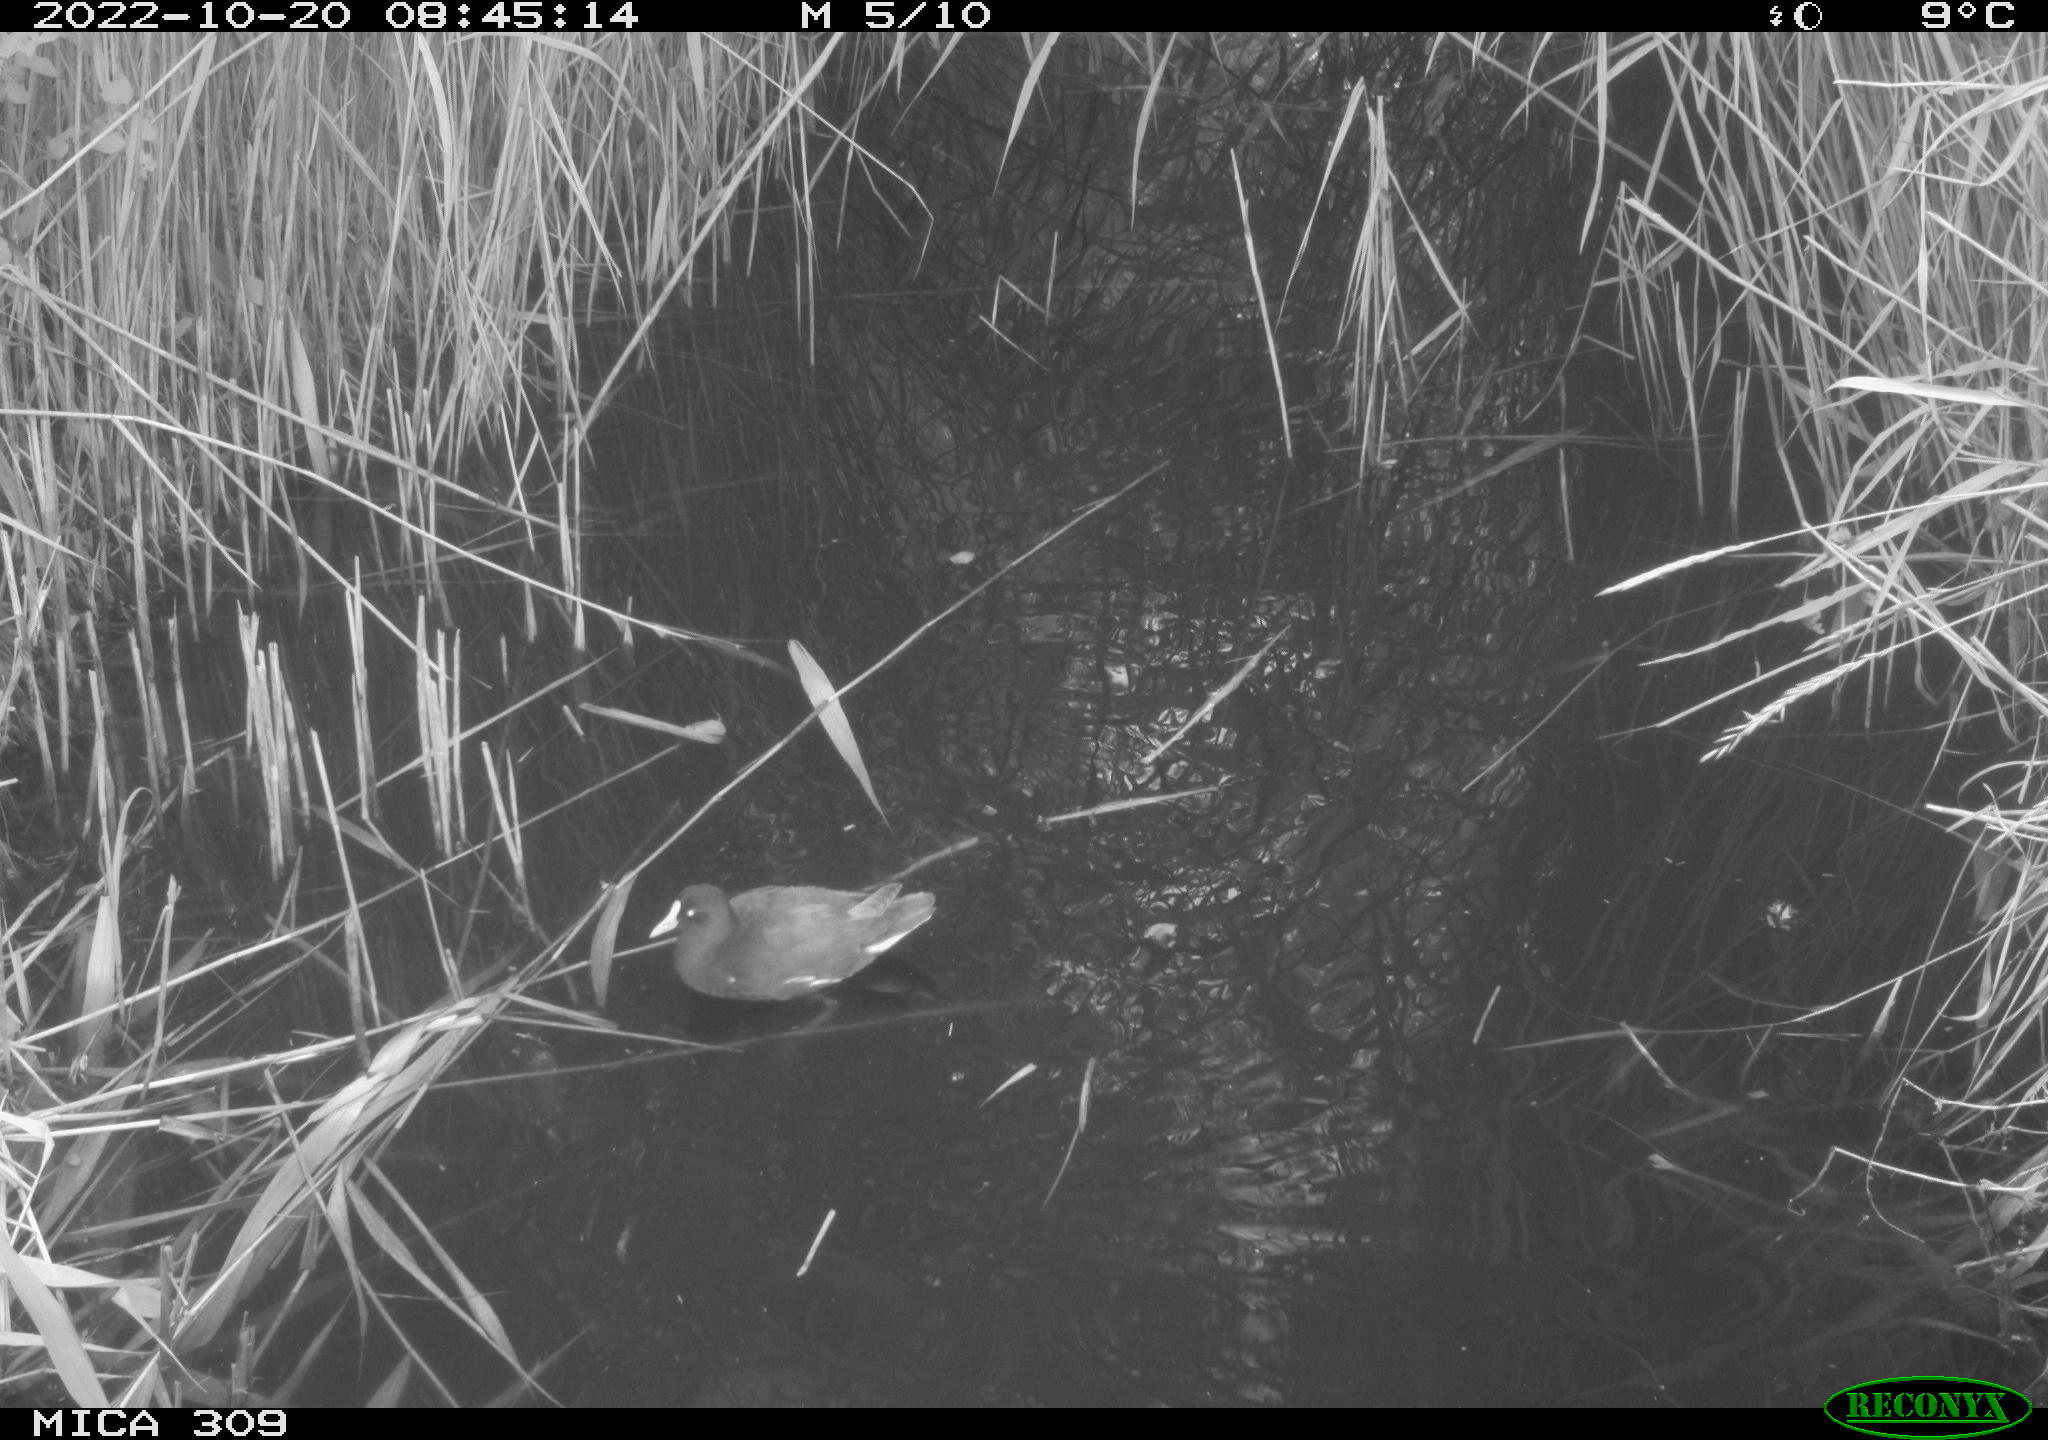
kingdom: Animalia
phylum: Chordata
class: Aves
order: Gruiformes
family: Rallidae
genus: Gallinula
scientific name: Gallinula chloropus
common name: Common moorhen
